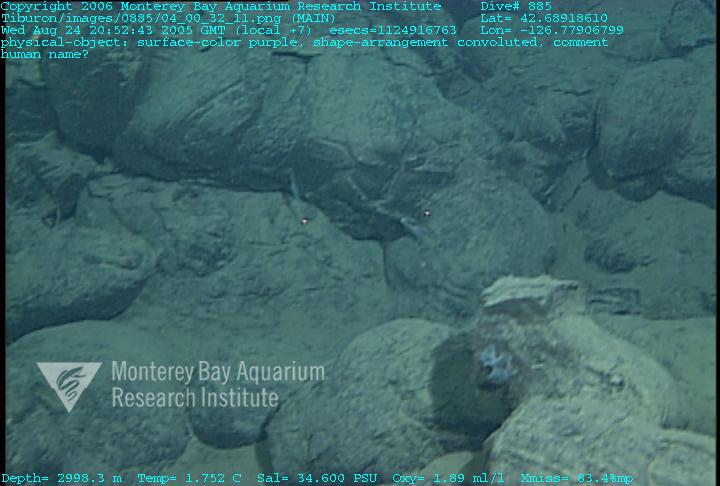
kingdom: Animalia
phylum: Porifera
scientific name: Porifera
